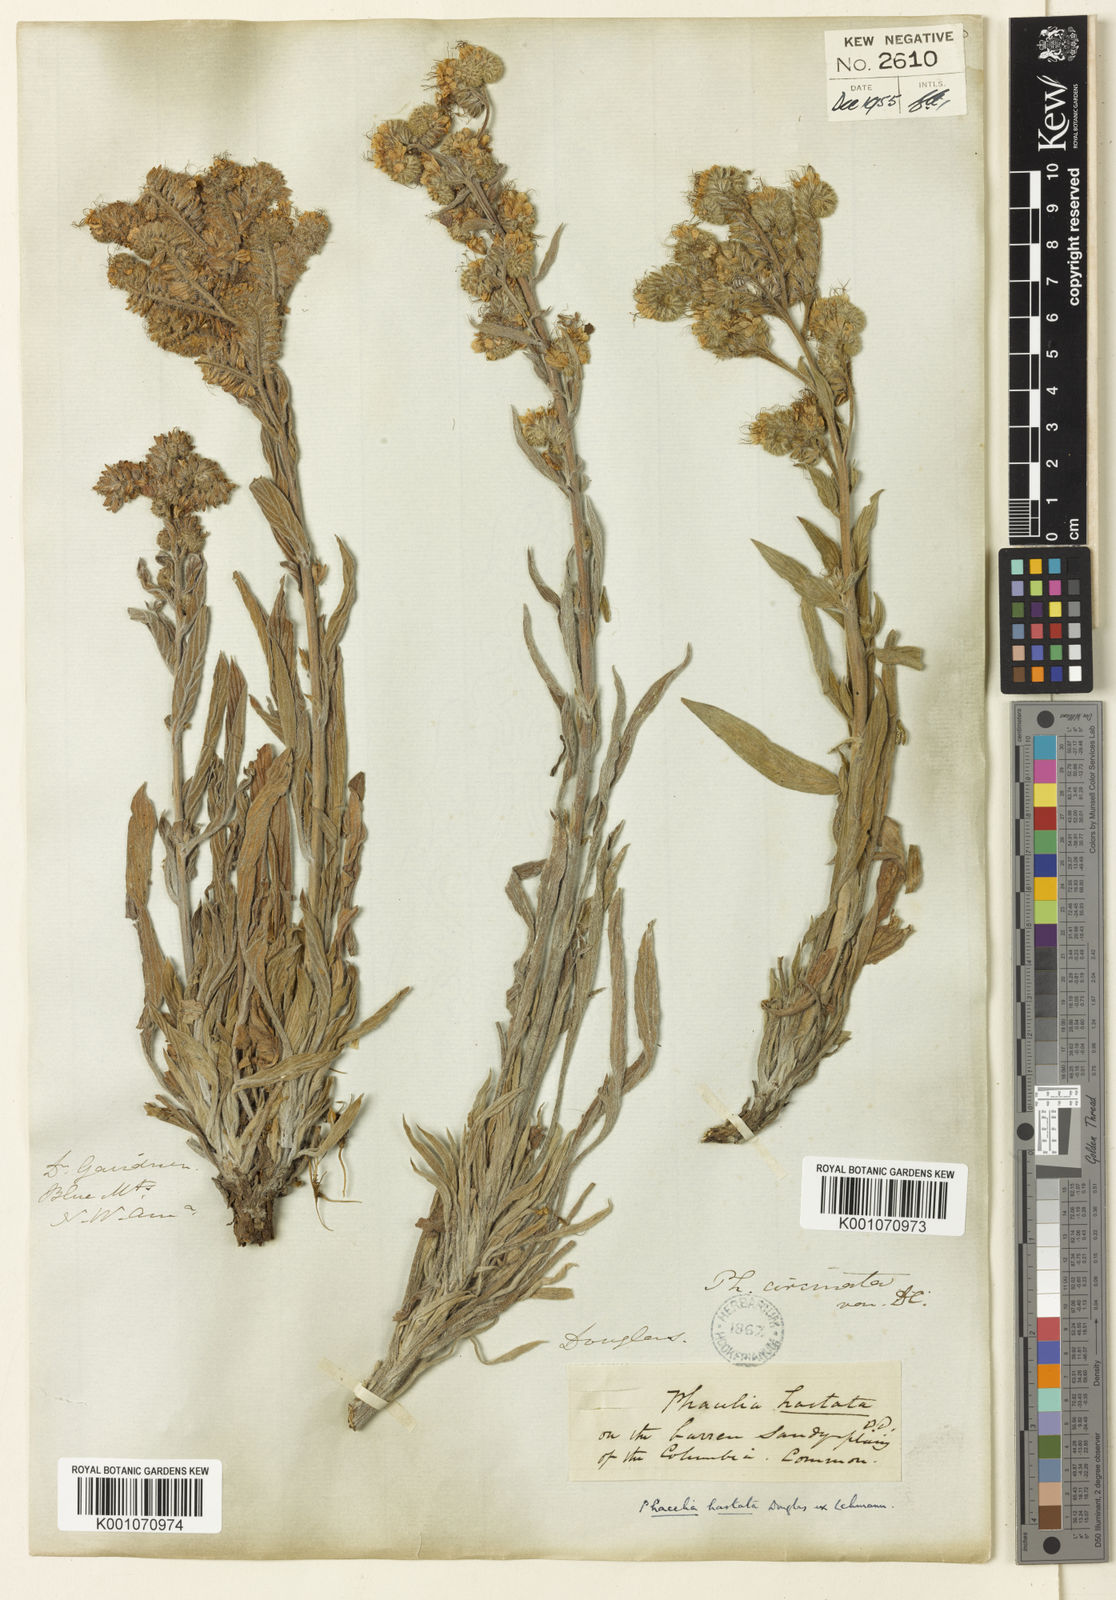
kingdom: Plantae
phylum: Tracheophyta
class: Magnoliopsida
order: Boraginales
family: Hydrophyllaceae
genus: Phacelia
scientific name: Phacelia hastata
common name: Silver-leaved phacelia
